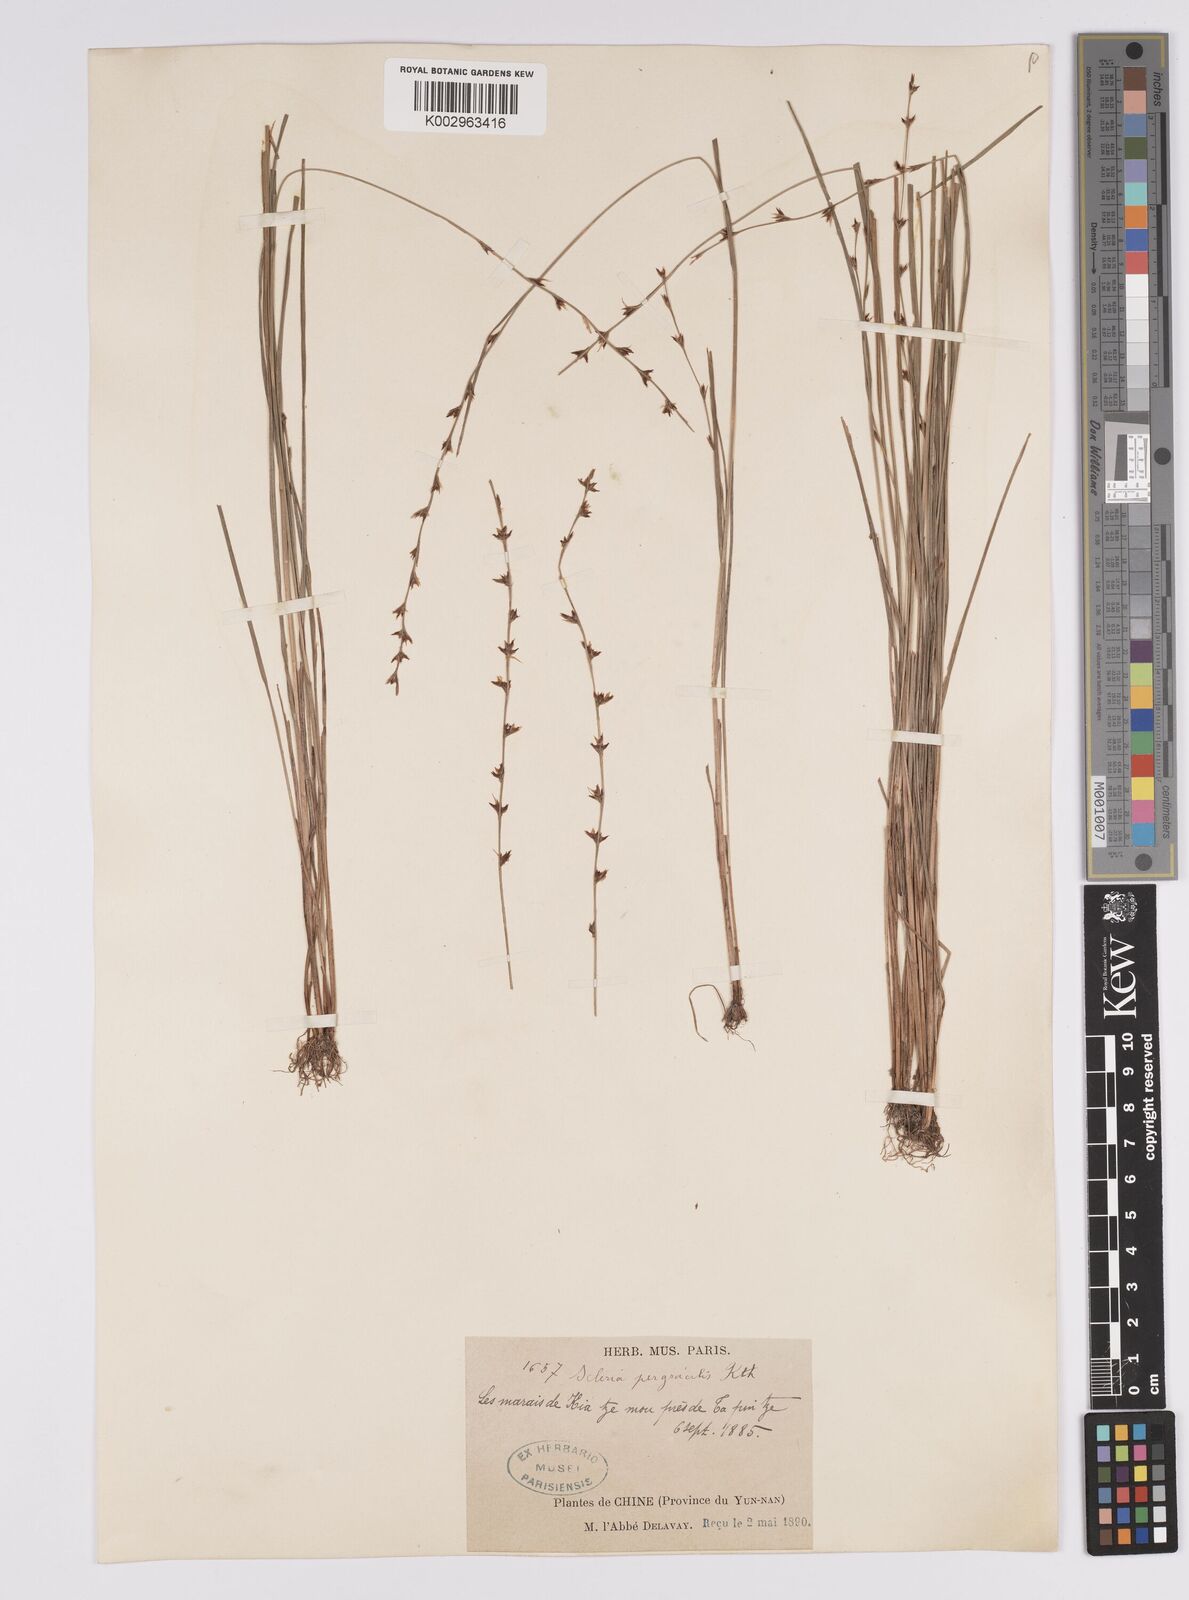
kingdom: Plantae
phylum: Tracheophyta
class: Liliopsida
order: Poales
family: Cyperaceae
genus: Scleria
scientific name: Scleria pergracilis
